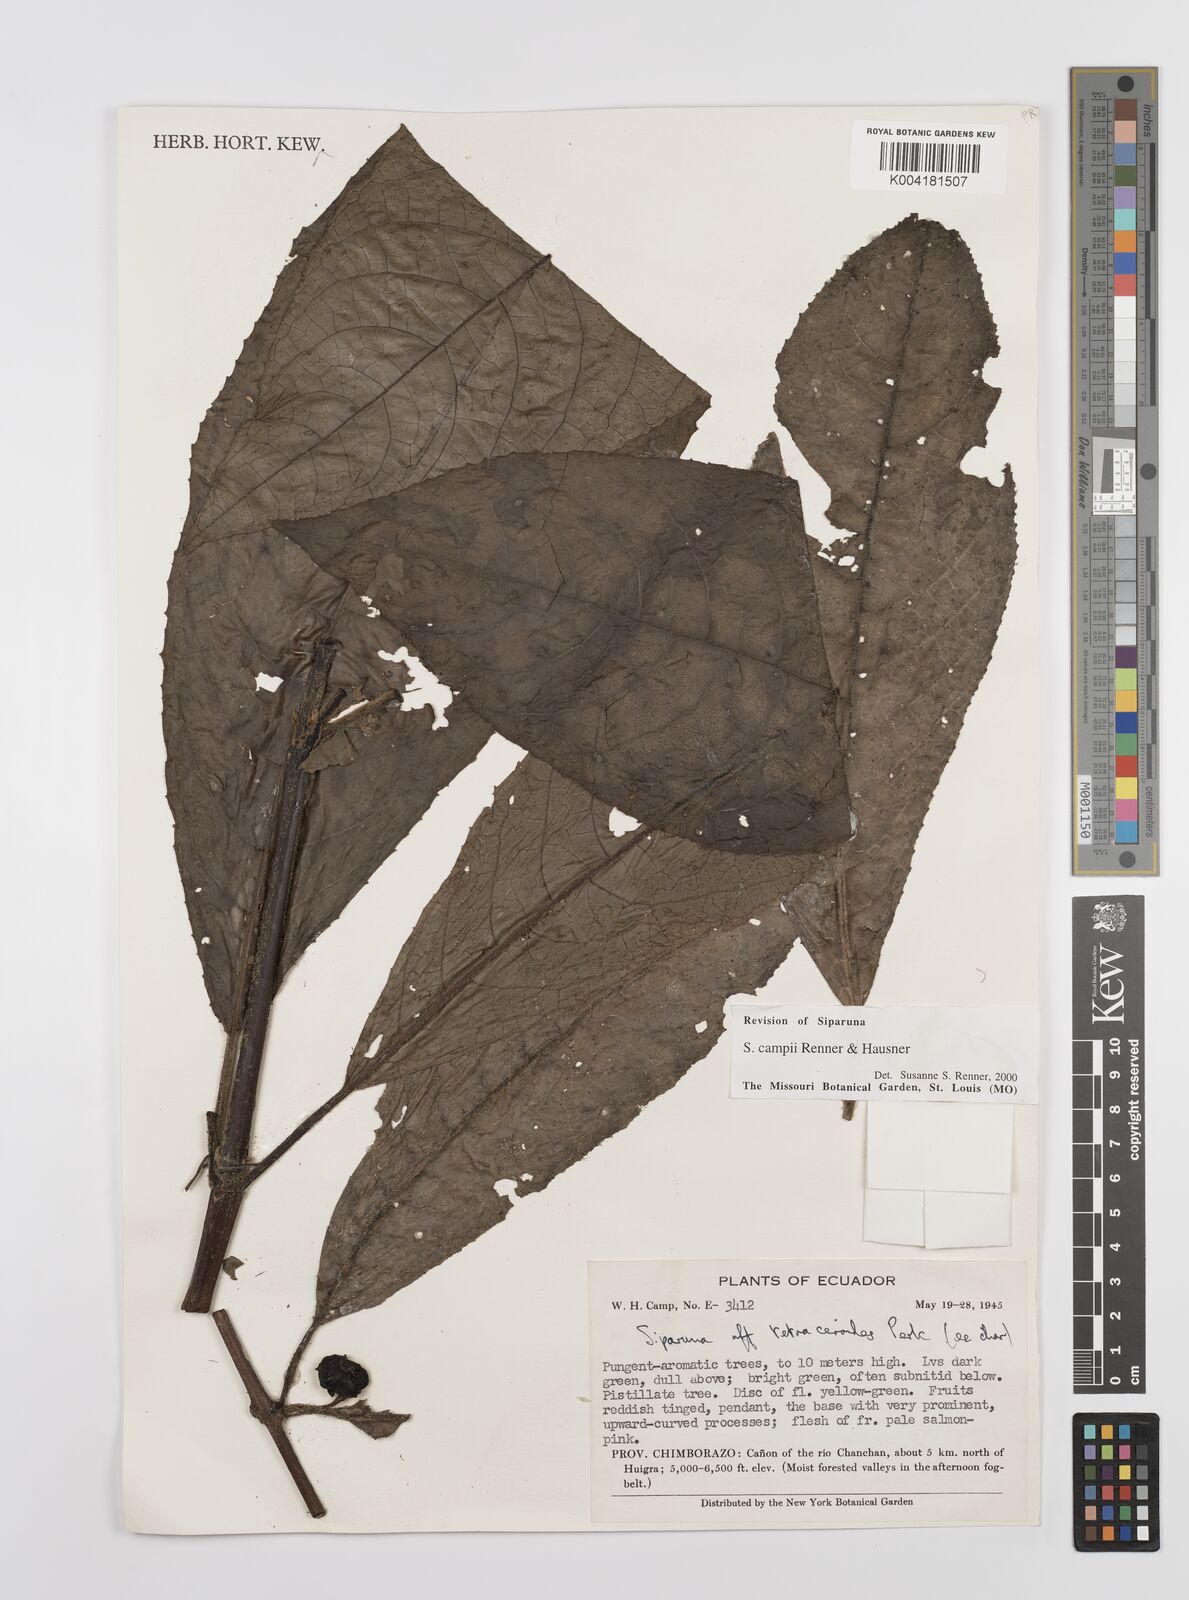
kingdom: Plantae
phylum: Tracheophyta
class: Magnoliopsida
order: Laurales
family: Siparunaceae
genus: Siparuna
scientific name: Siparuna campii
